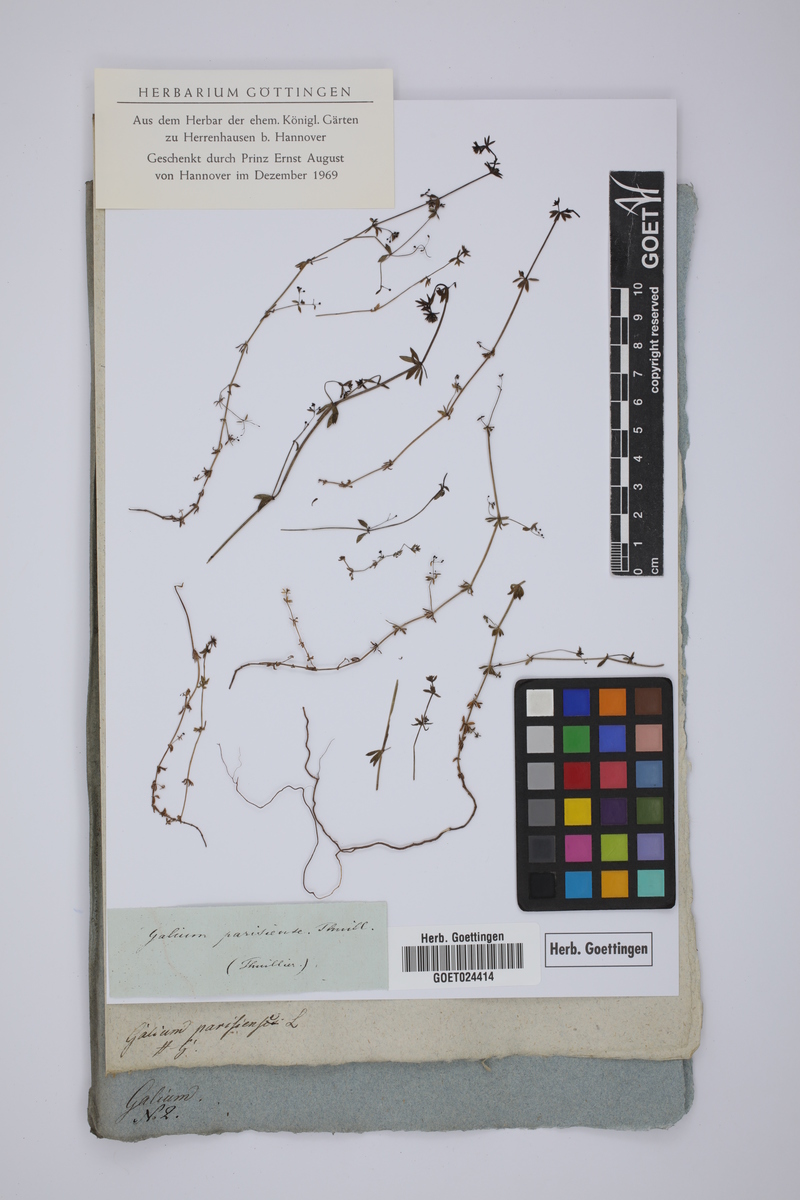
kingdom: Plantae
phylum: Tracheophyta
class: Magnoliopsida
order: Gentianales
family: Rubiaceae
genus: Galium
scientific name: Galium parisiense
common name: Wall bedstraw
